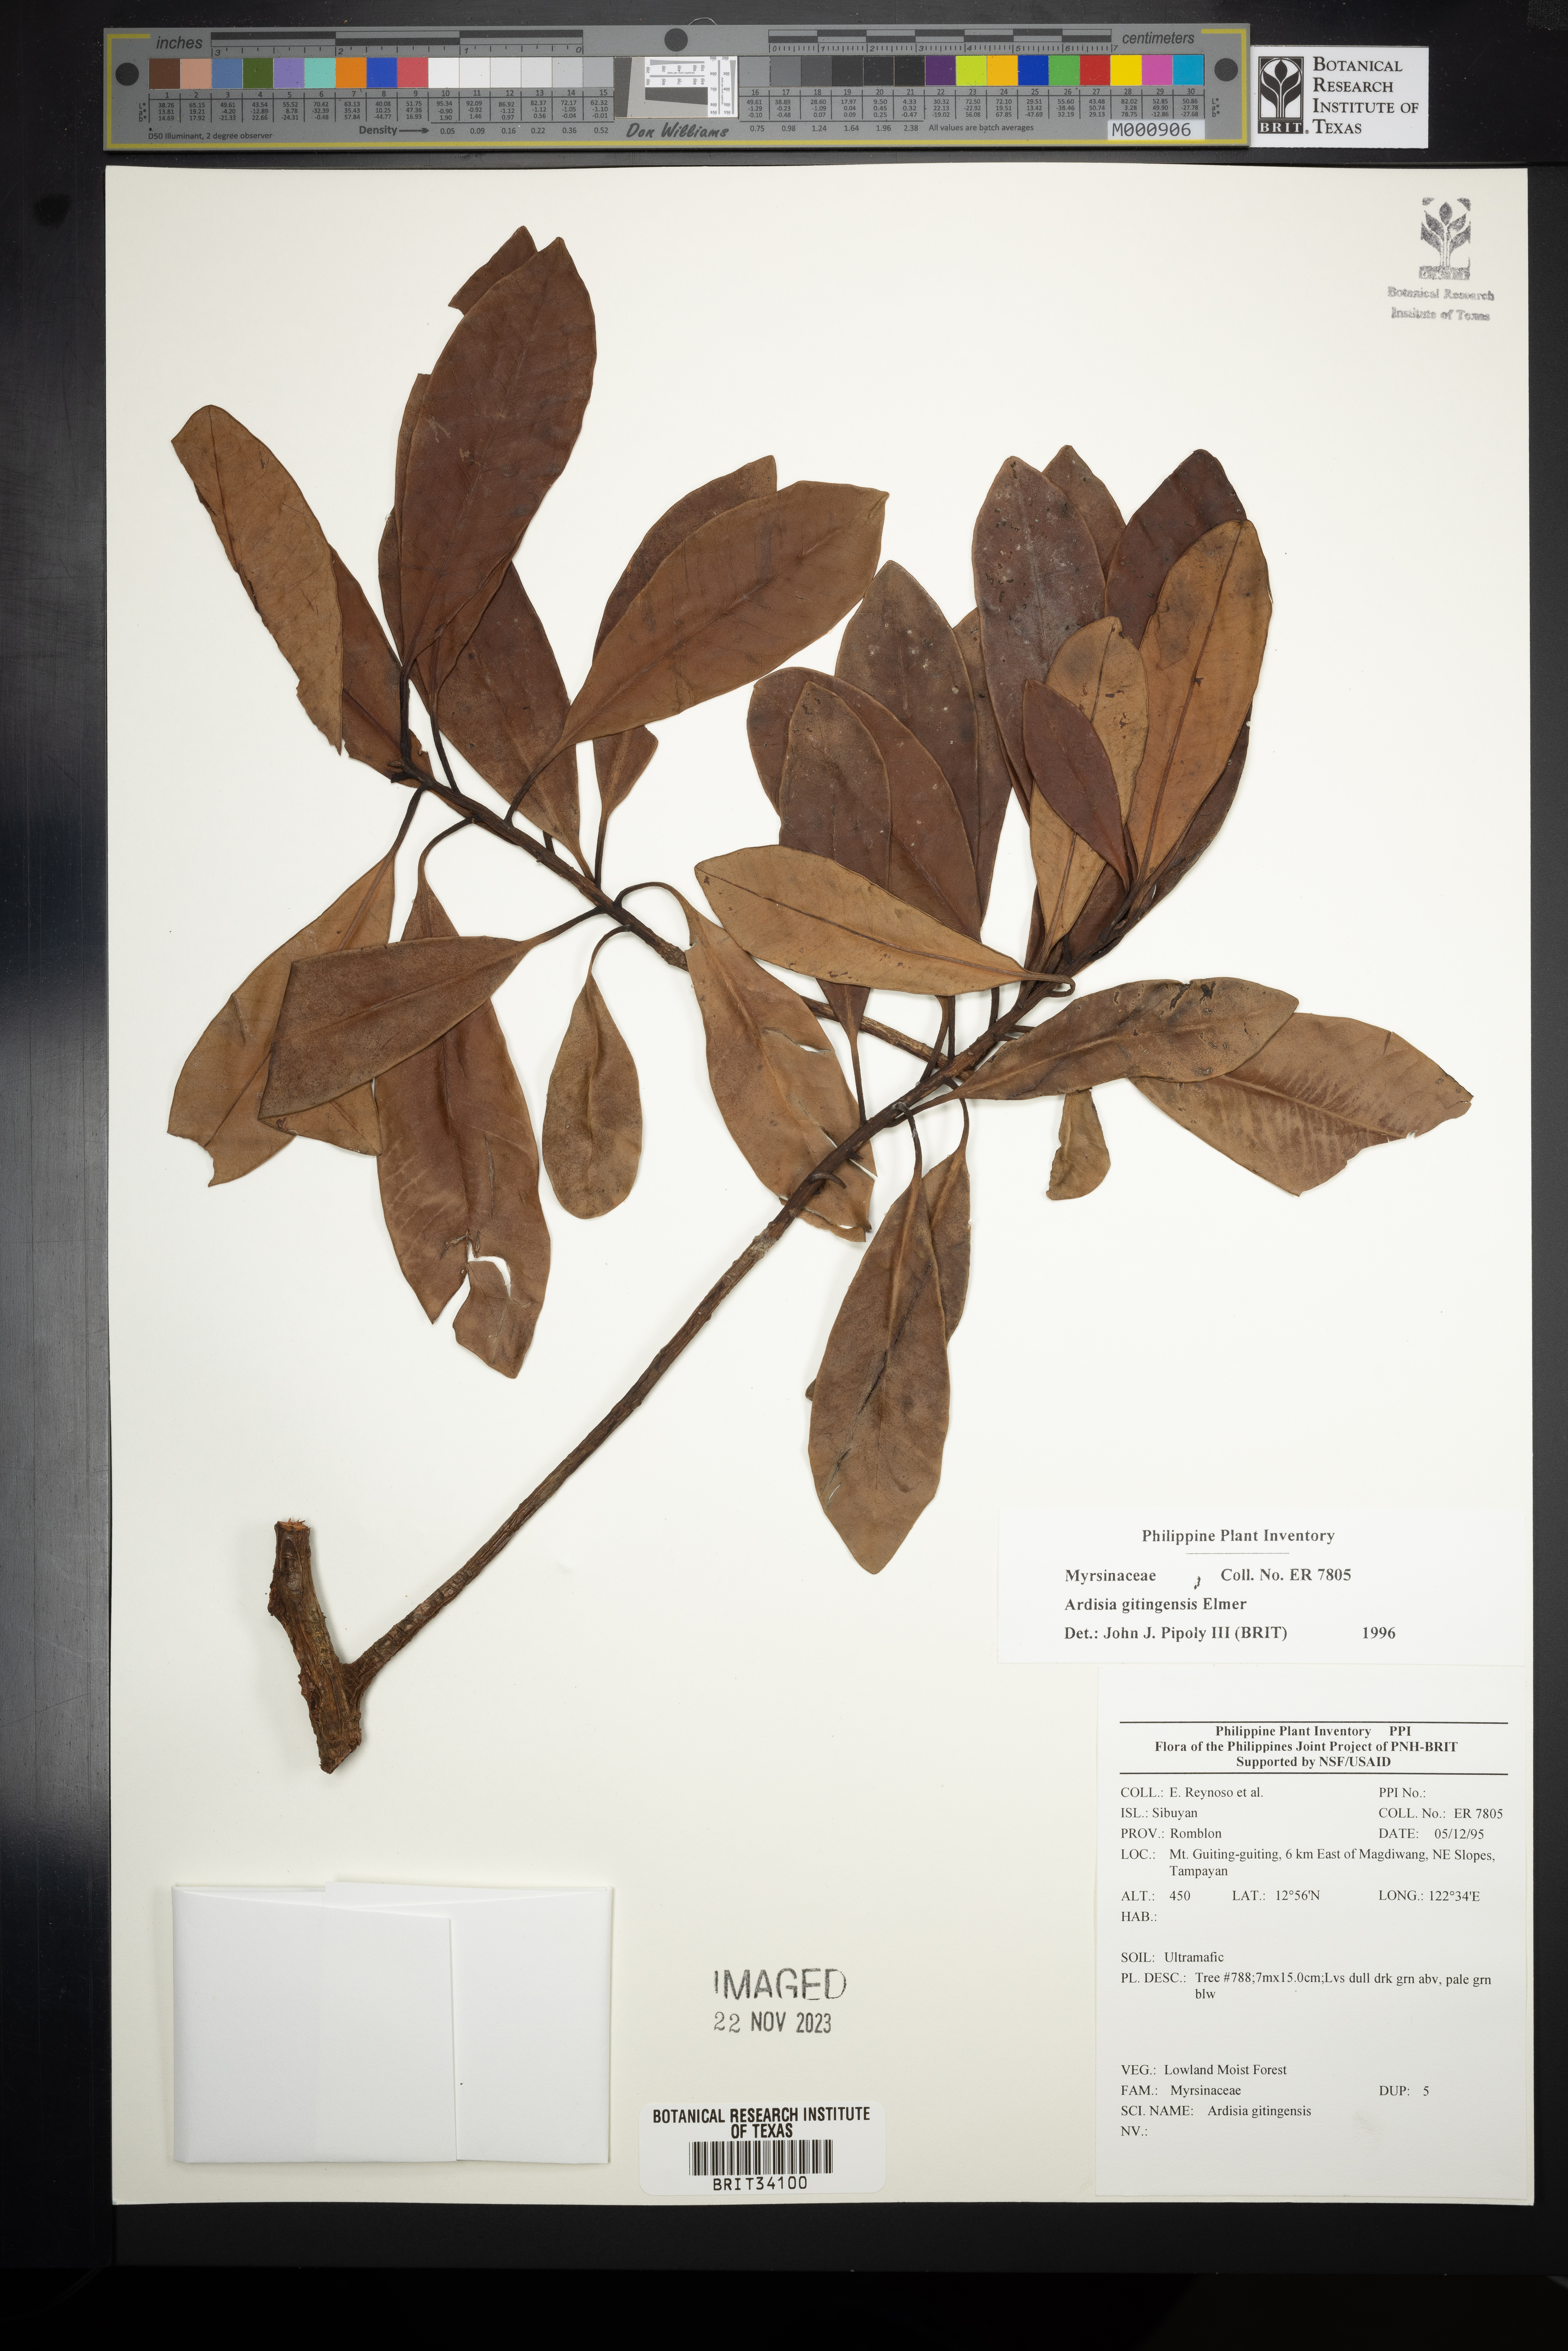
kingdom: Plantae
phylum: Tracheophyta
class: Magnoliopsida
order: Ericales
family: Primulaceae
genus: Ardisia
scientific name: Ardisia darlingii
